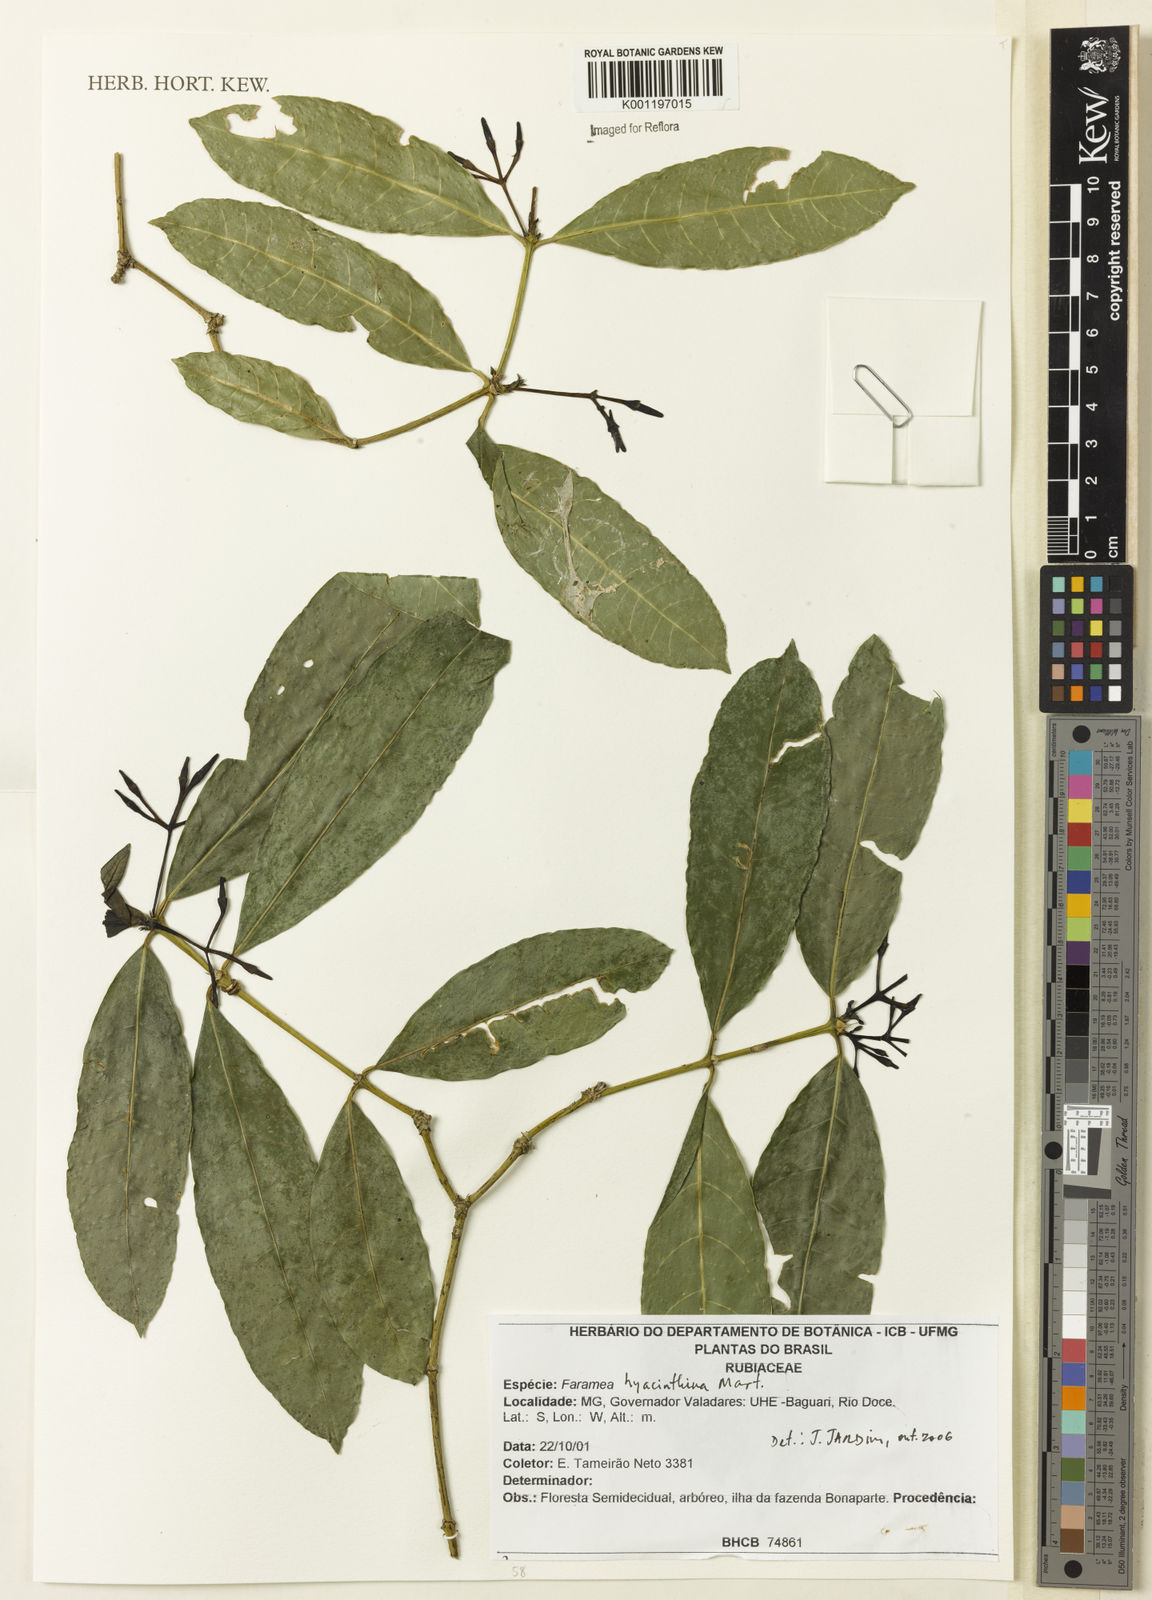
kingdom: Plantae
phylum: Tracheophyta
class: Magnoliopsida
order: Gentianales
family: Rubiaceae
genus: Faramea
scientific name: Faramea hyacinthina
